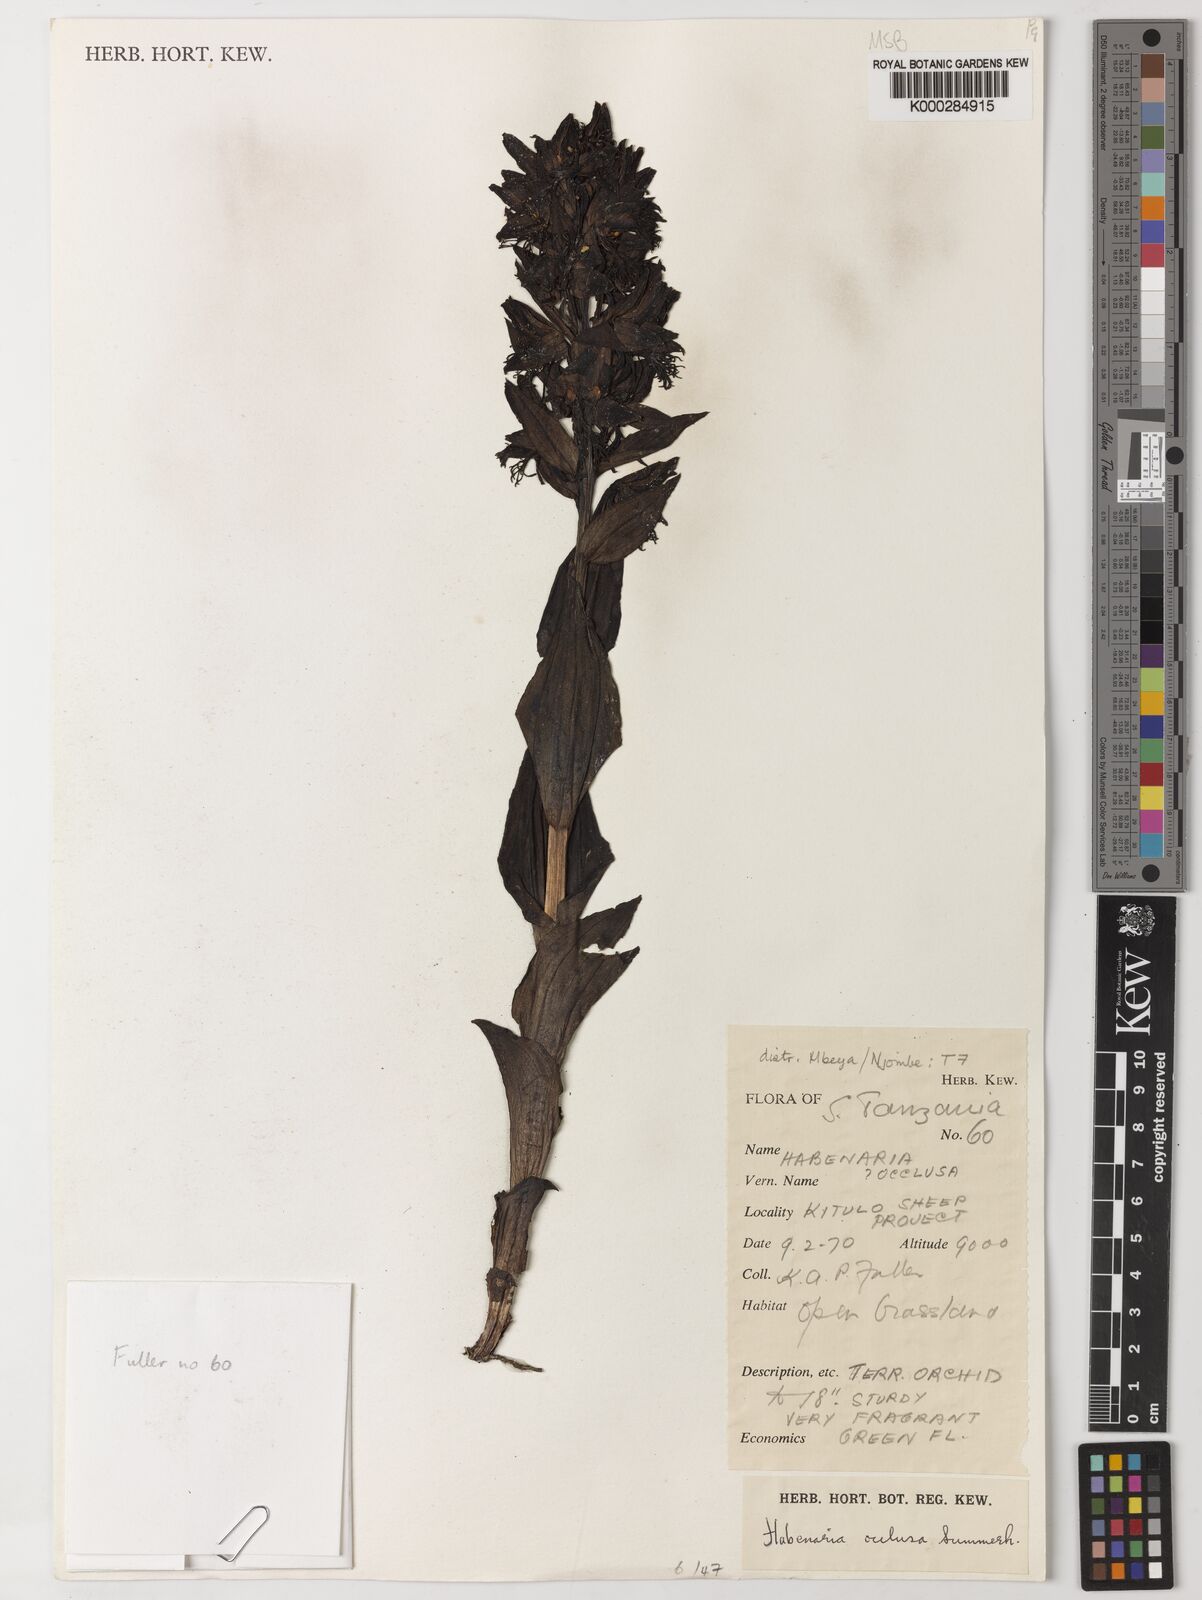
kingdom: Plantae
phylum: Tracheophyta
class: Liliopsida
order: Asparagales
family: Orchidaceae
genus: Habenaria
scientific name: Habenaria occlusa
